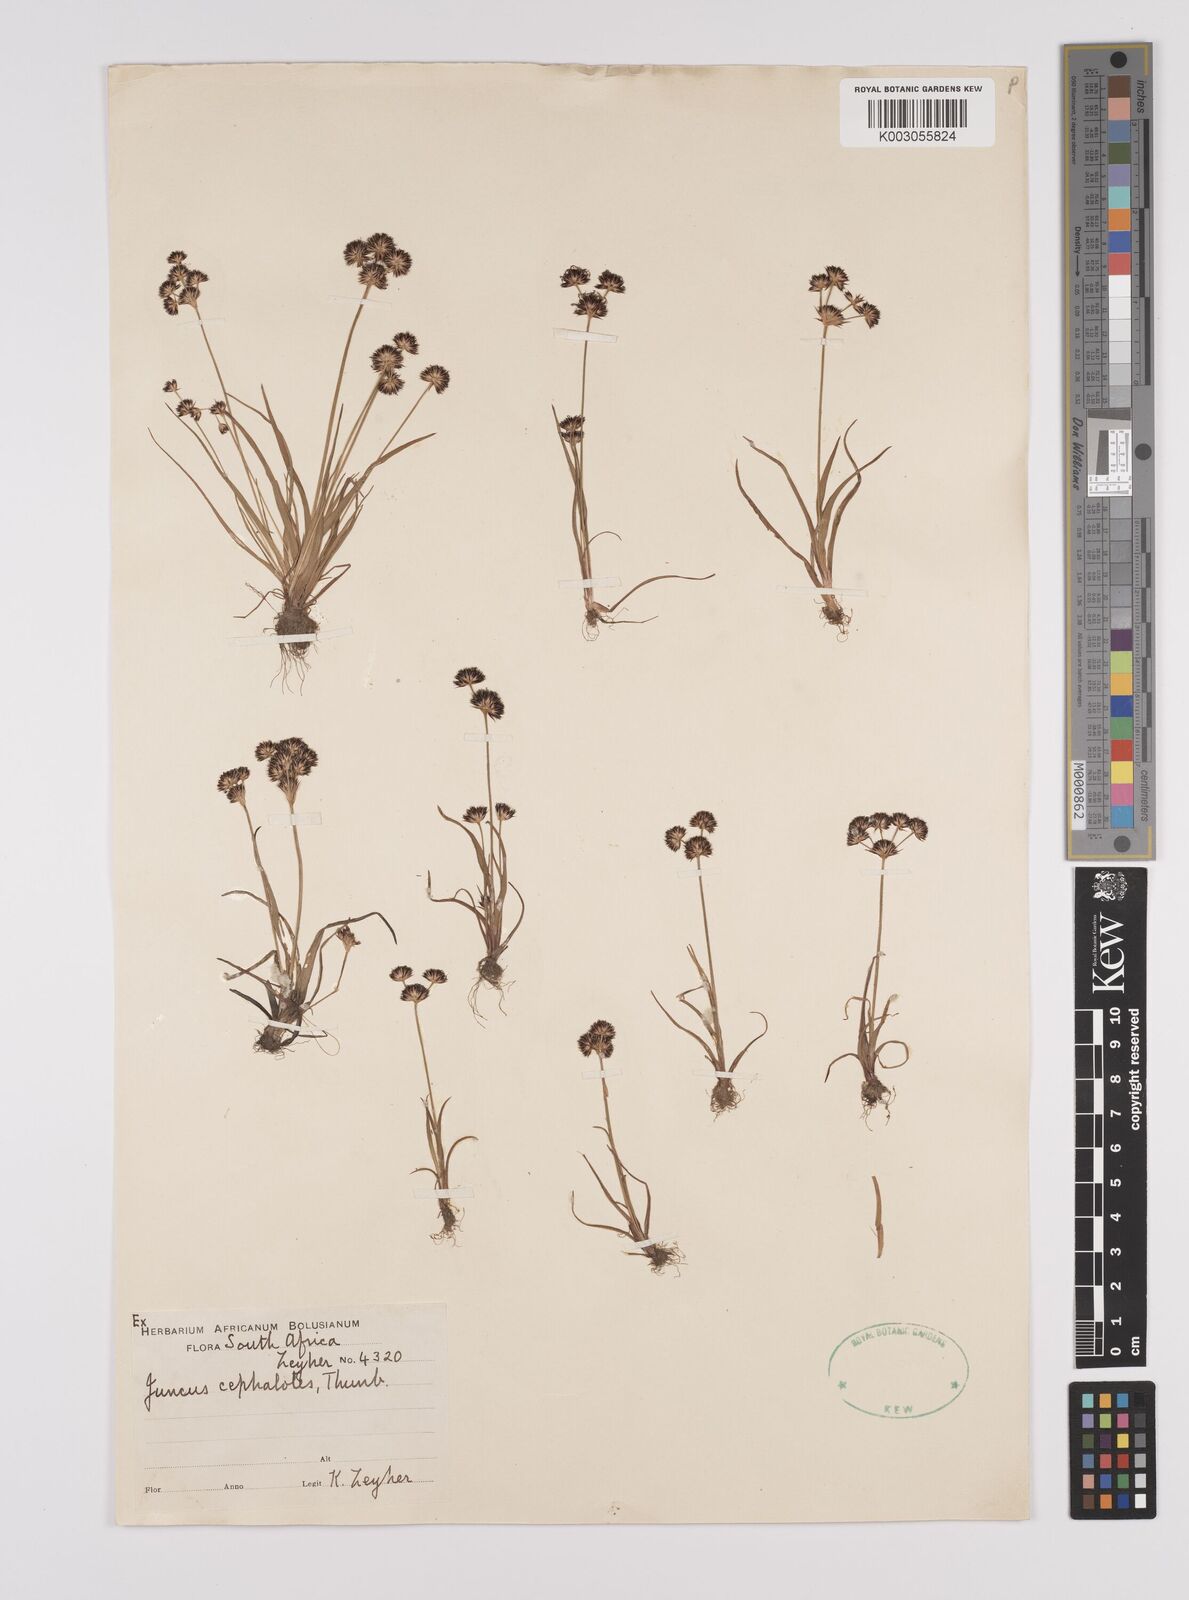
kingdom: Plantae
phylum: Tracheophyta
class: Liliopsida
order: Poales
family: Juncaceae
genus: Juncus
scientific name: Juncus cephalotes
